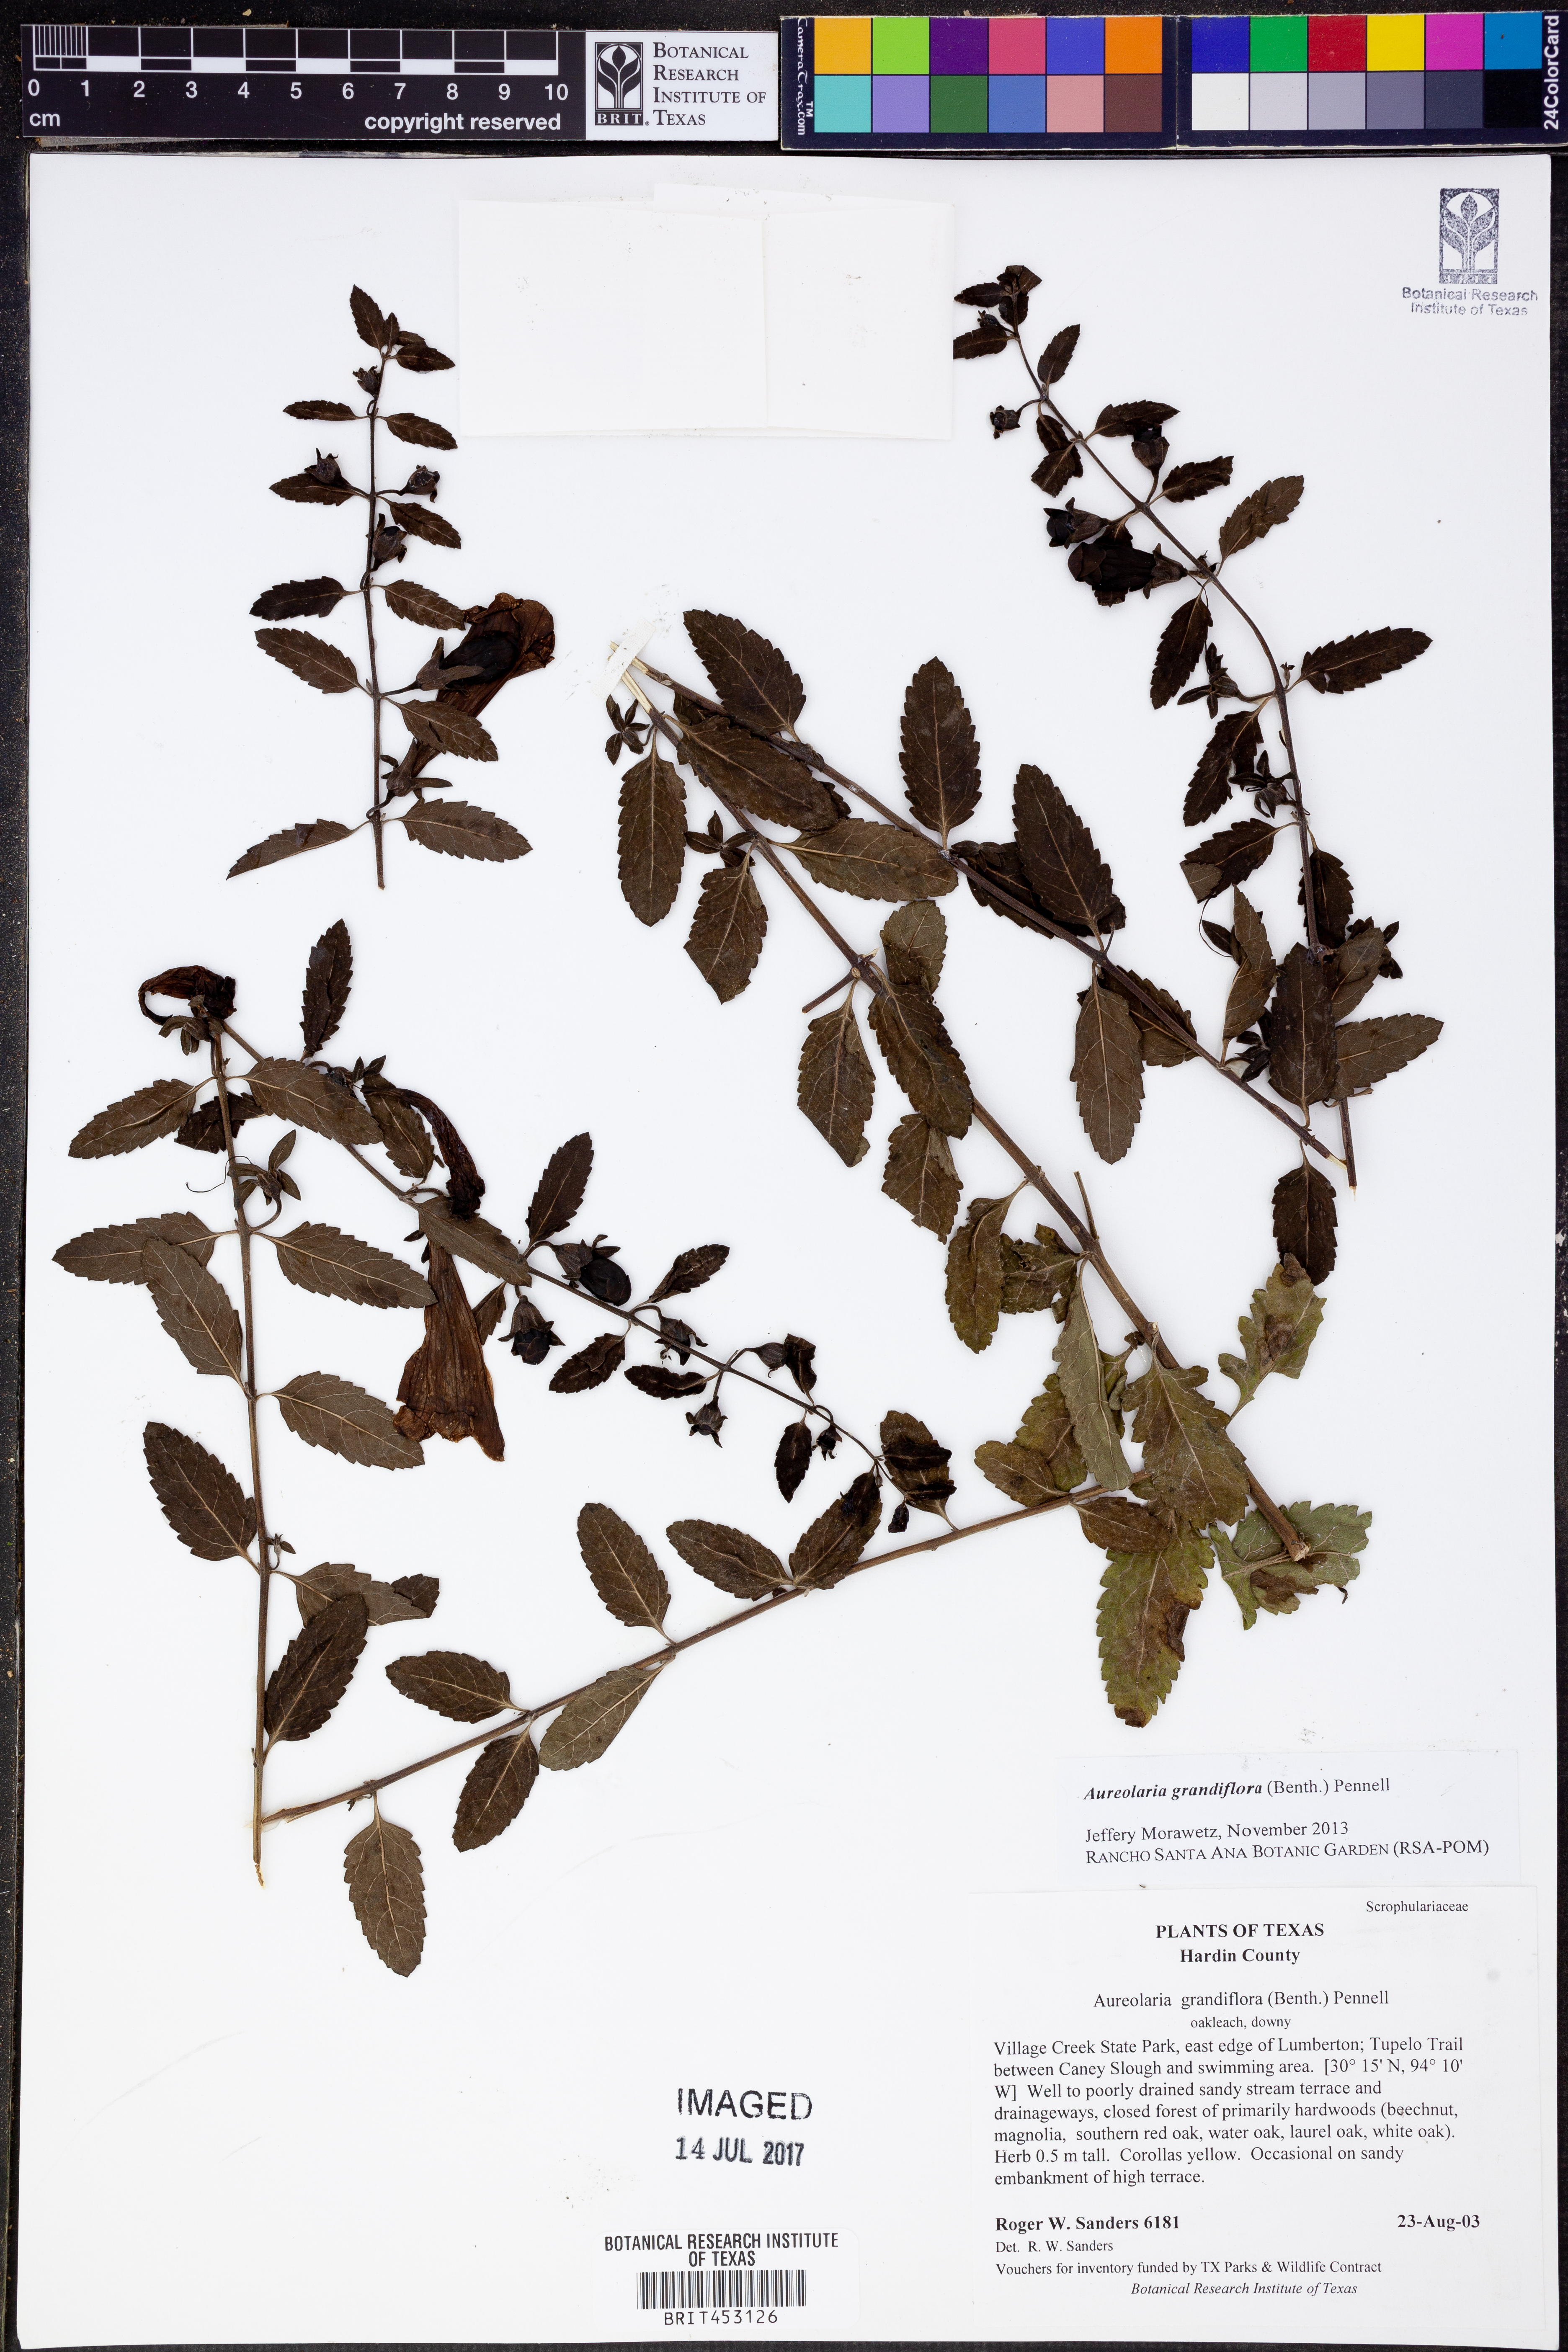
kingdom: Plantae
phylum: Tracheophyta
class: Magnoliopsida
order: Lamiales
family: Orobanchaceae
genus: Aureolaria
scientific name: Aureolaria grandiflora
